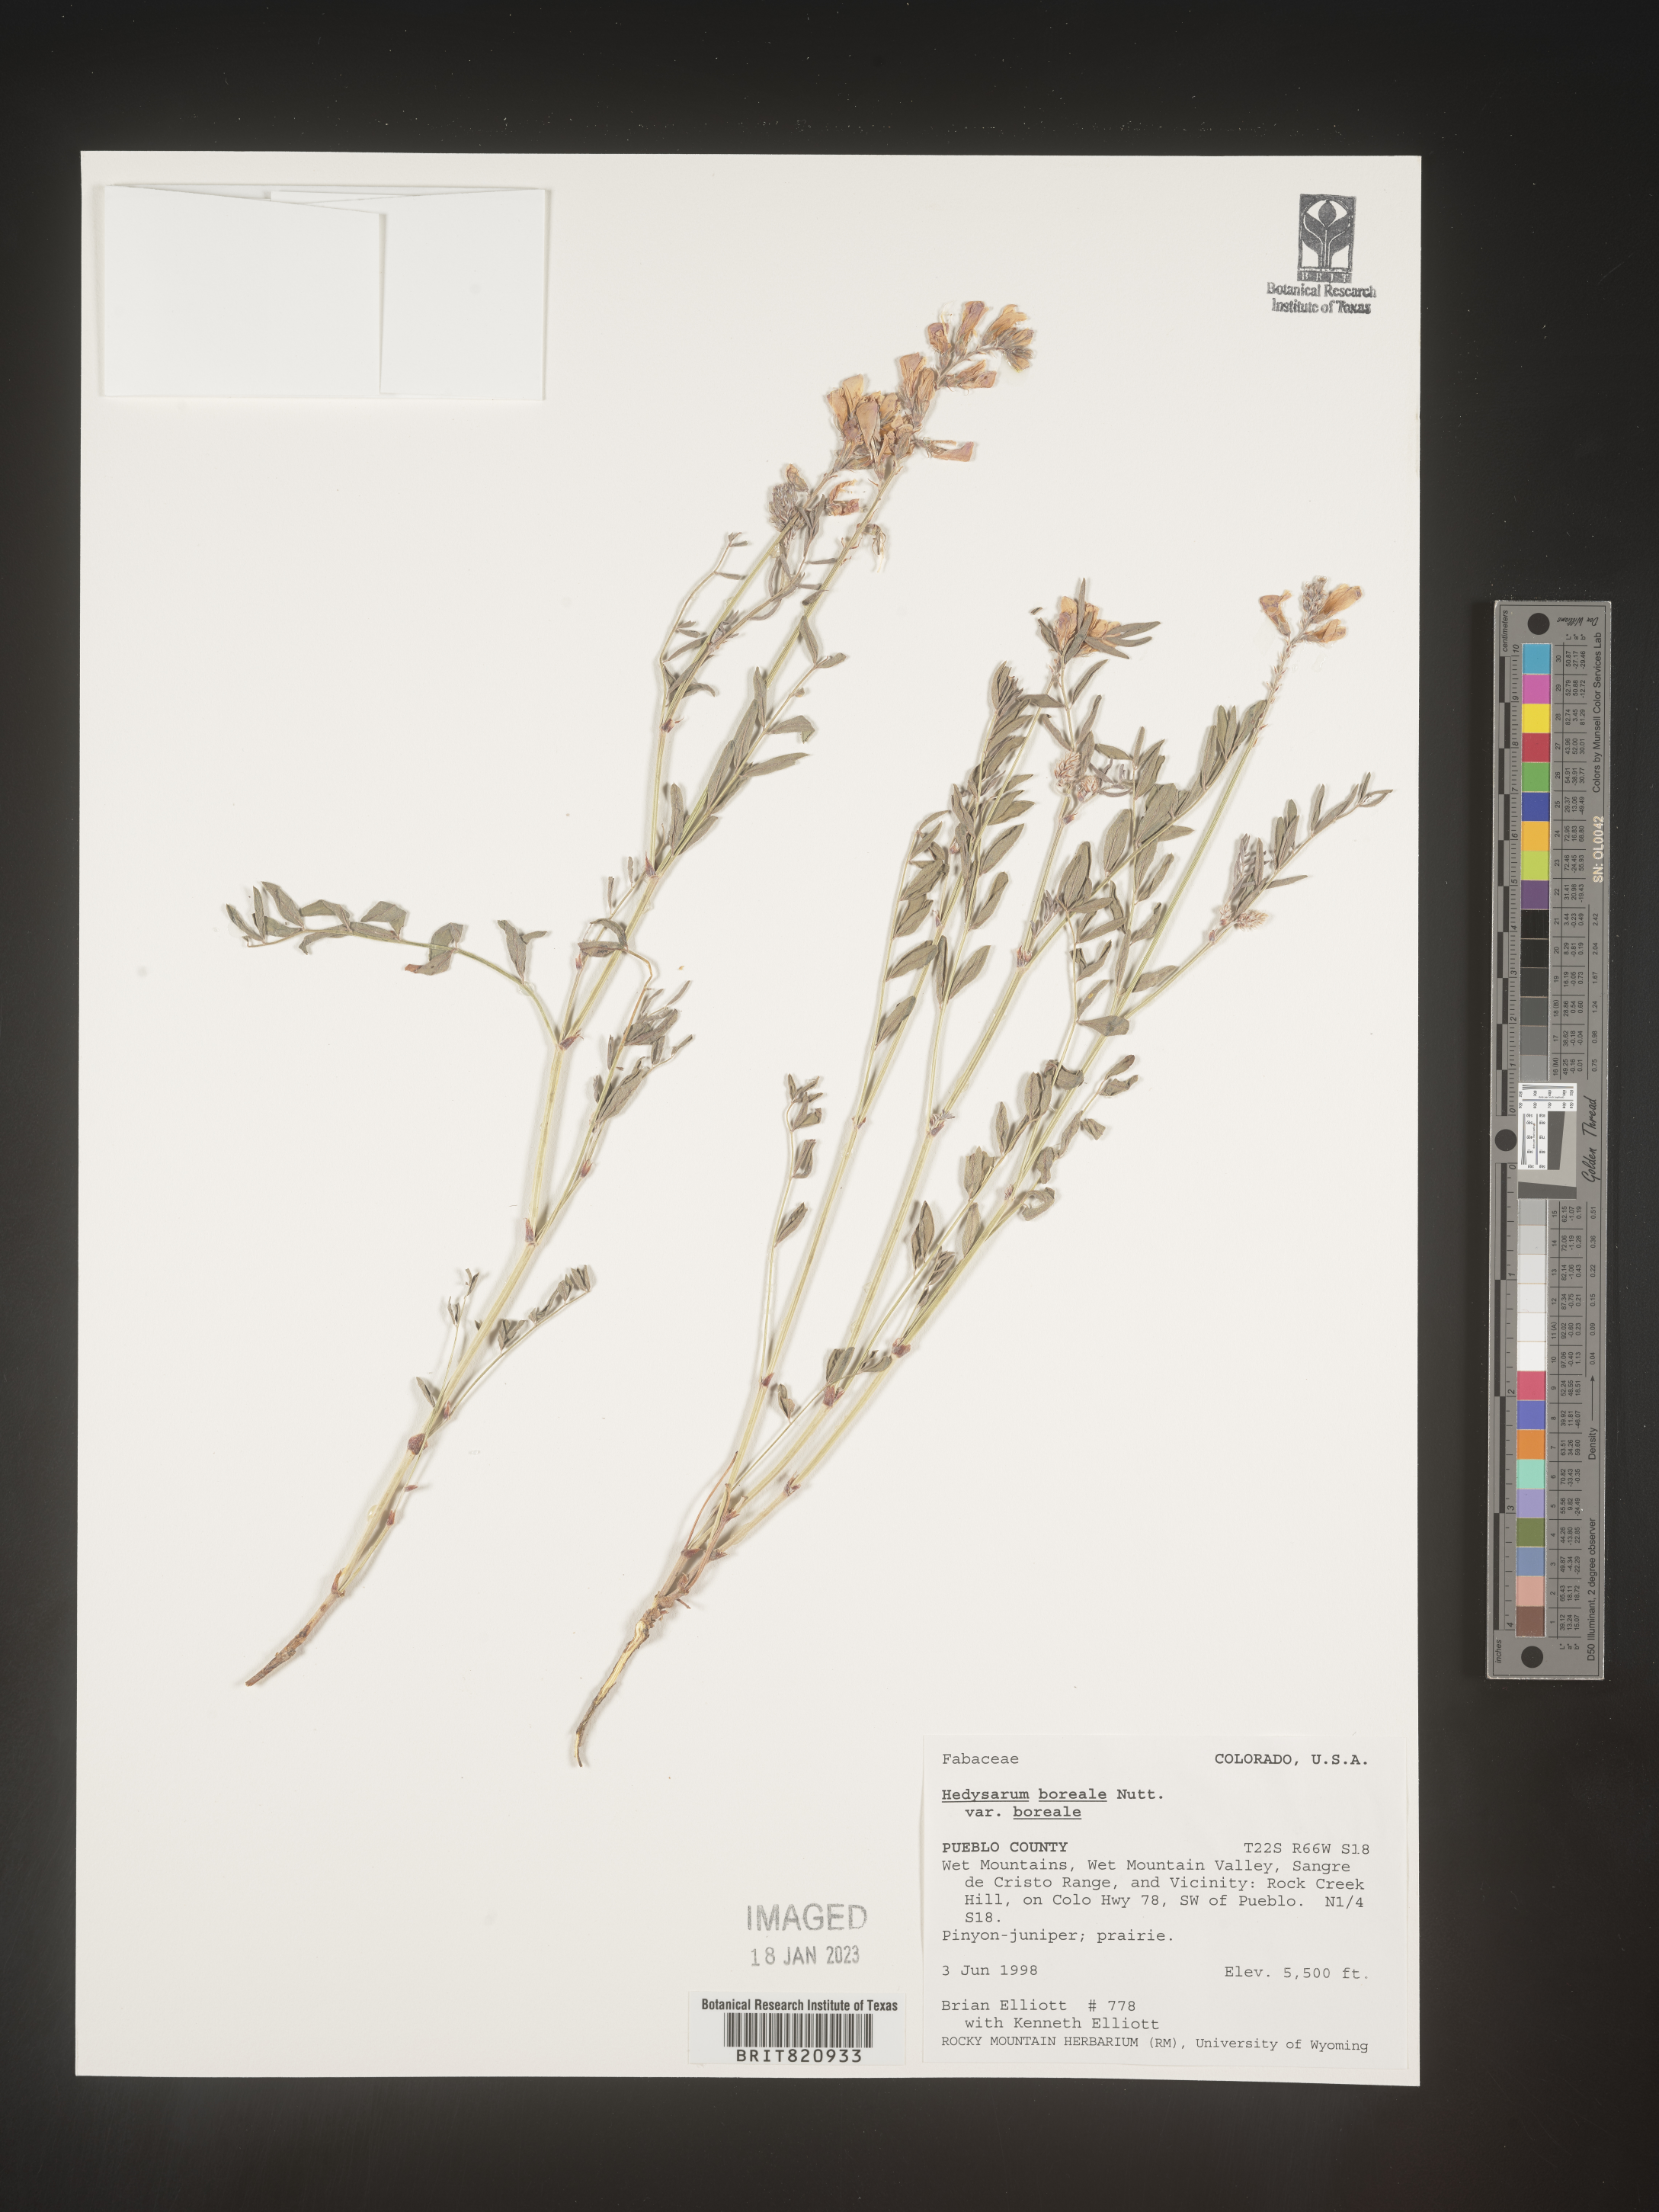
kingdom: Plantae
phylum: Tracheophyta
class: Magnoliopsida
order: Fabales
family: Fabaceae
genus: Hedysarum
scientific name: Hedysarum boreale
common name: Northern sweet-vetch
